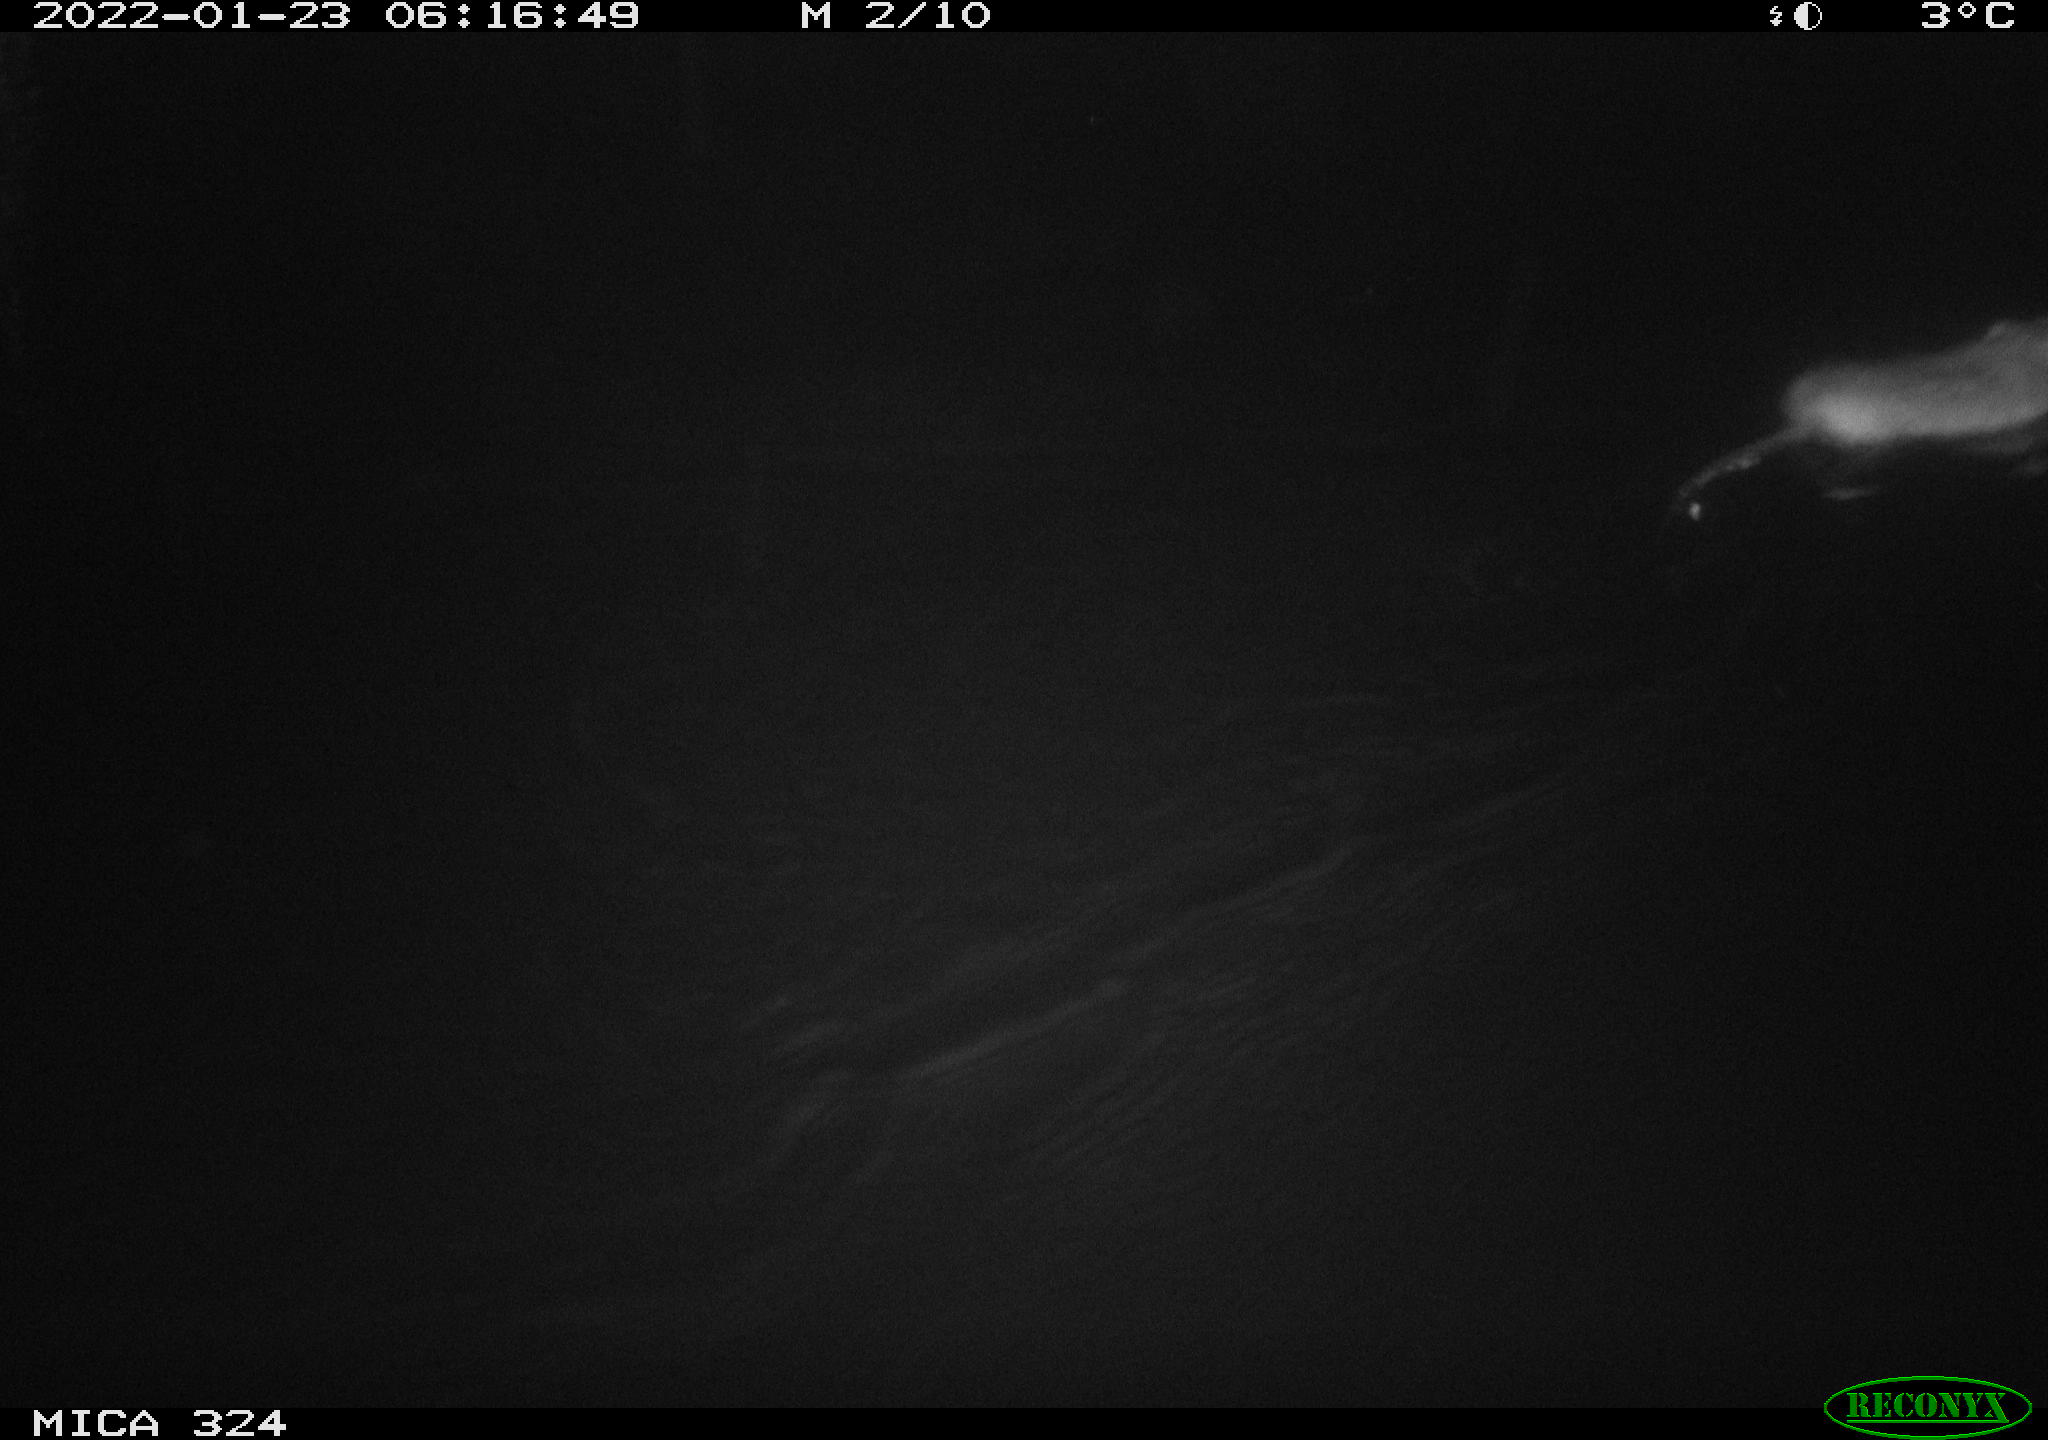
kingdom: Animalia
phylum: Chordata
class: Mammalia
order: Rodentia
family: Cricetidae
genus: Ondatra
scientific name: Ondatra zibethicus
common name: Muskrat
